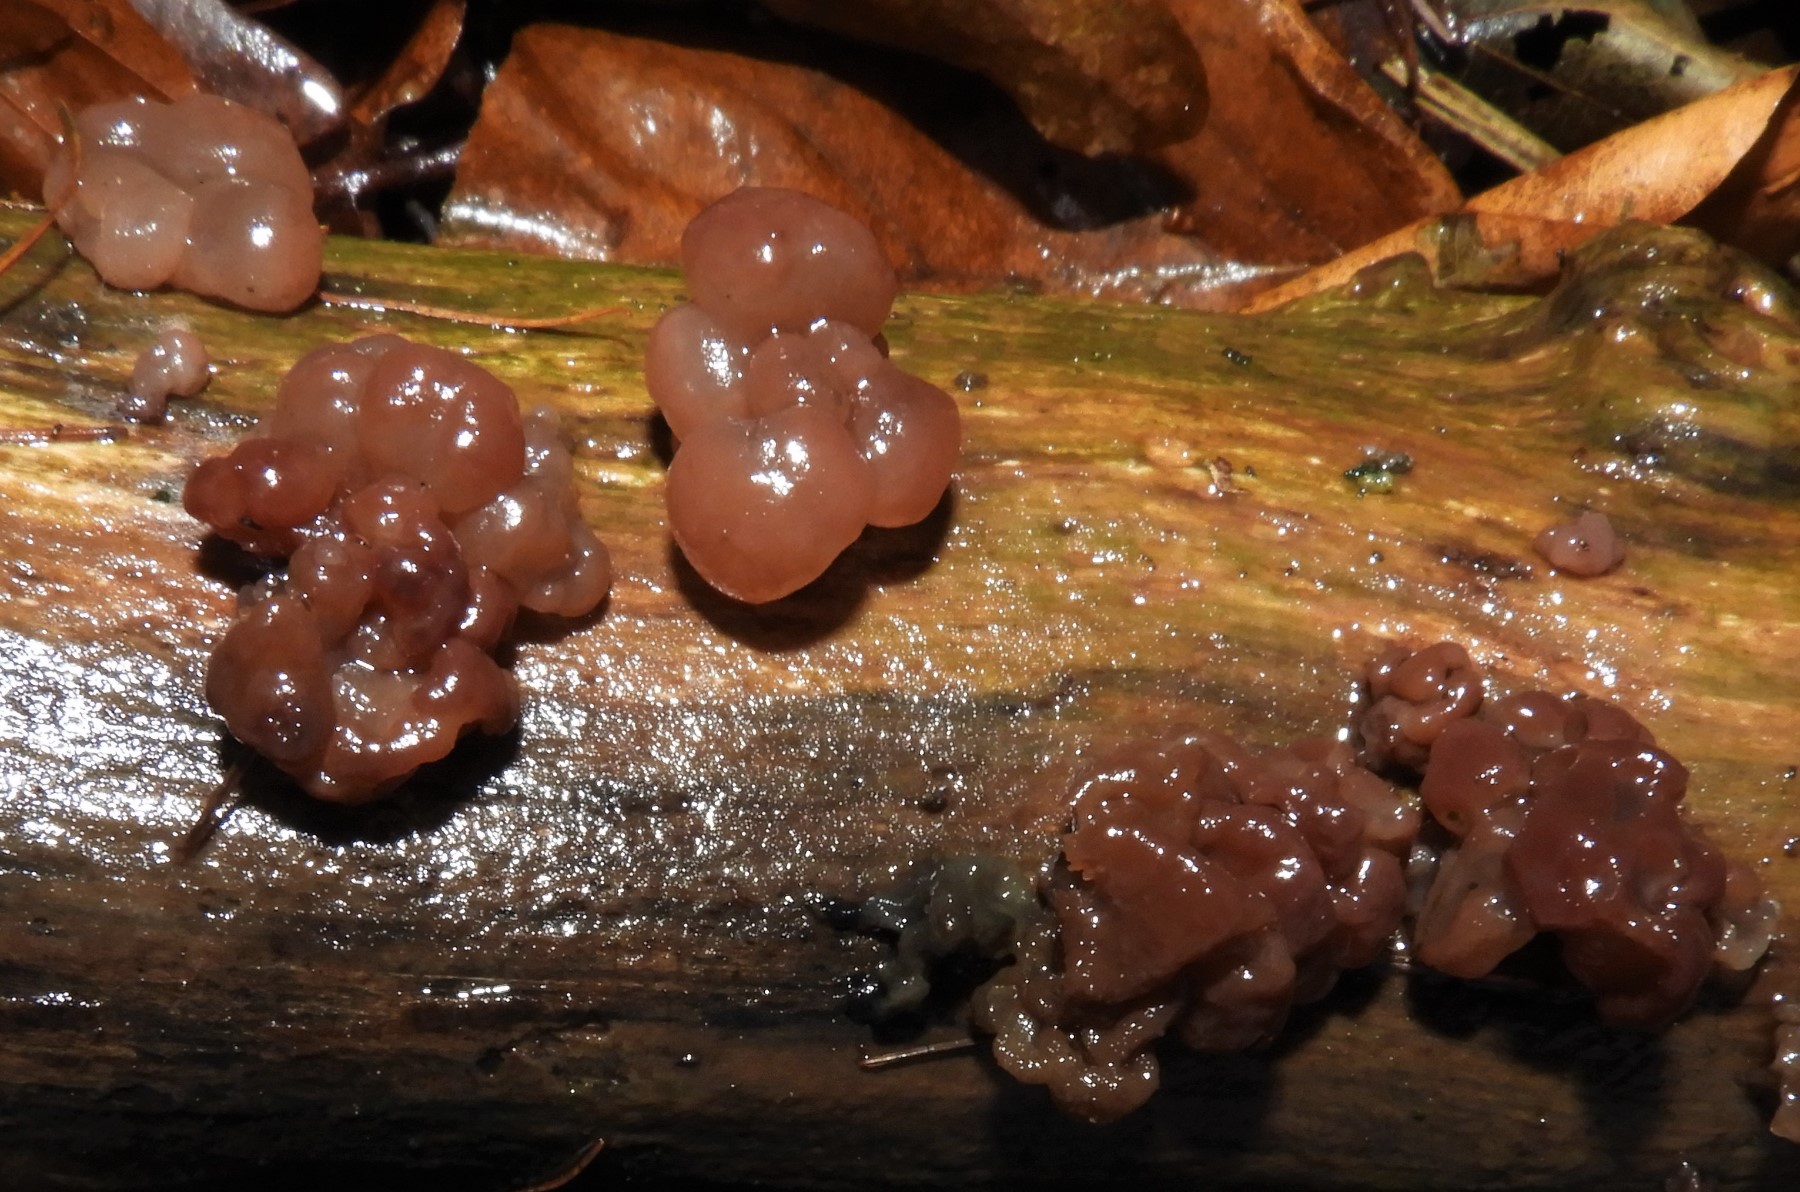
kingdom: Fungi
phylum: Ascomycota
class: Leotiomycetes
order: Helotiales
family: Gelatinodiscaceae
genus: Ascotremella
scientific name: Ascotremella faginea
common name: hjerne-bævreskive
